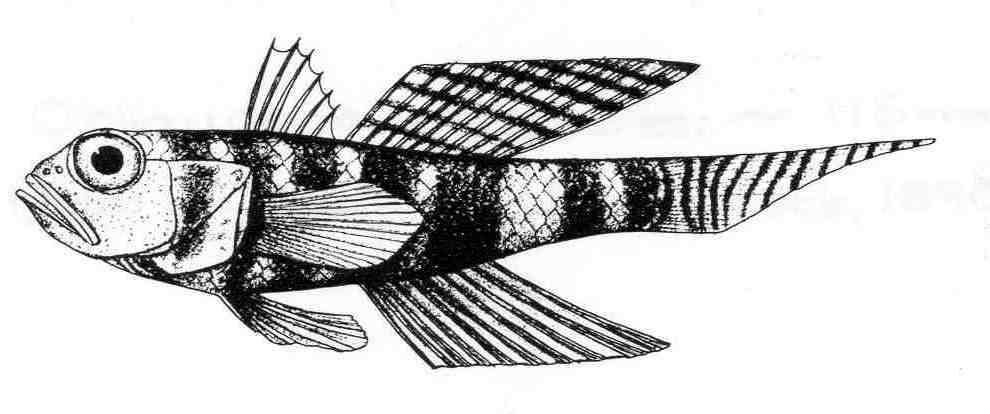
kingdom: Animalia
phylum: Chordata
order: Perciformes
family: Gobiidae
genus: Obliquogobius
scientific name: Obliquogobius cometes
